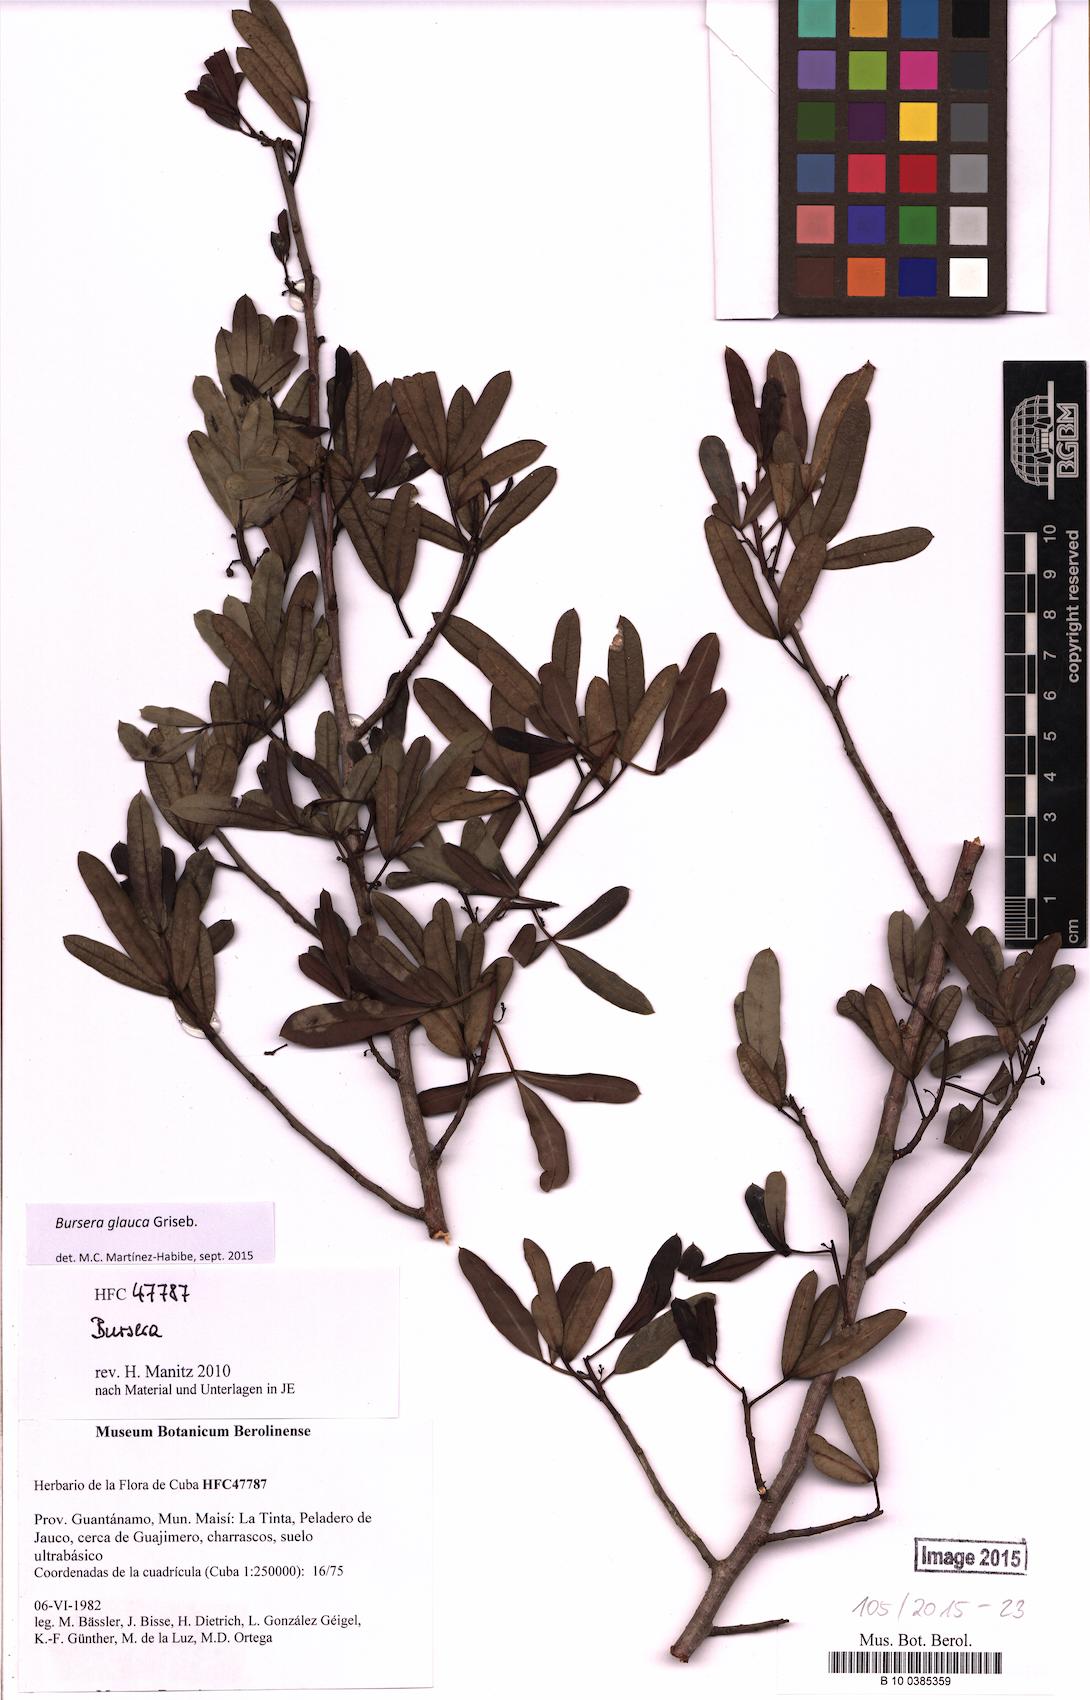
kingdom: Plantae
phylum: Tracheophyta
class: Magnoliopsida
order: Sapindales
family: Burseraceae
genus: Bursera
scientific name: Bursera glauca
